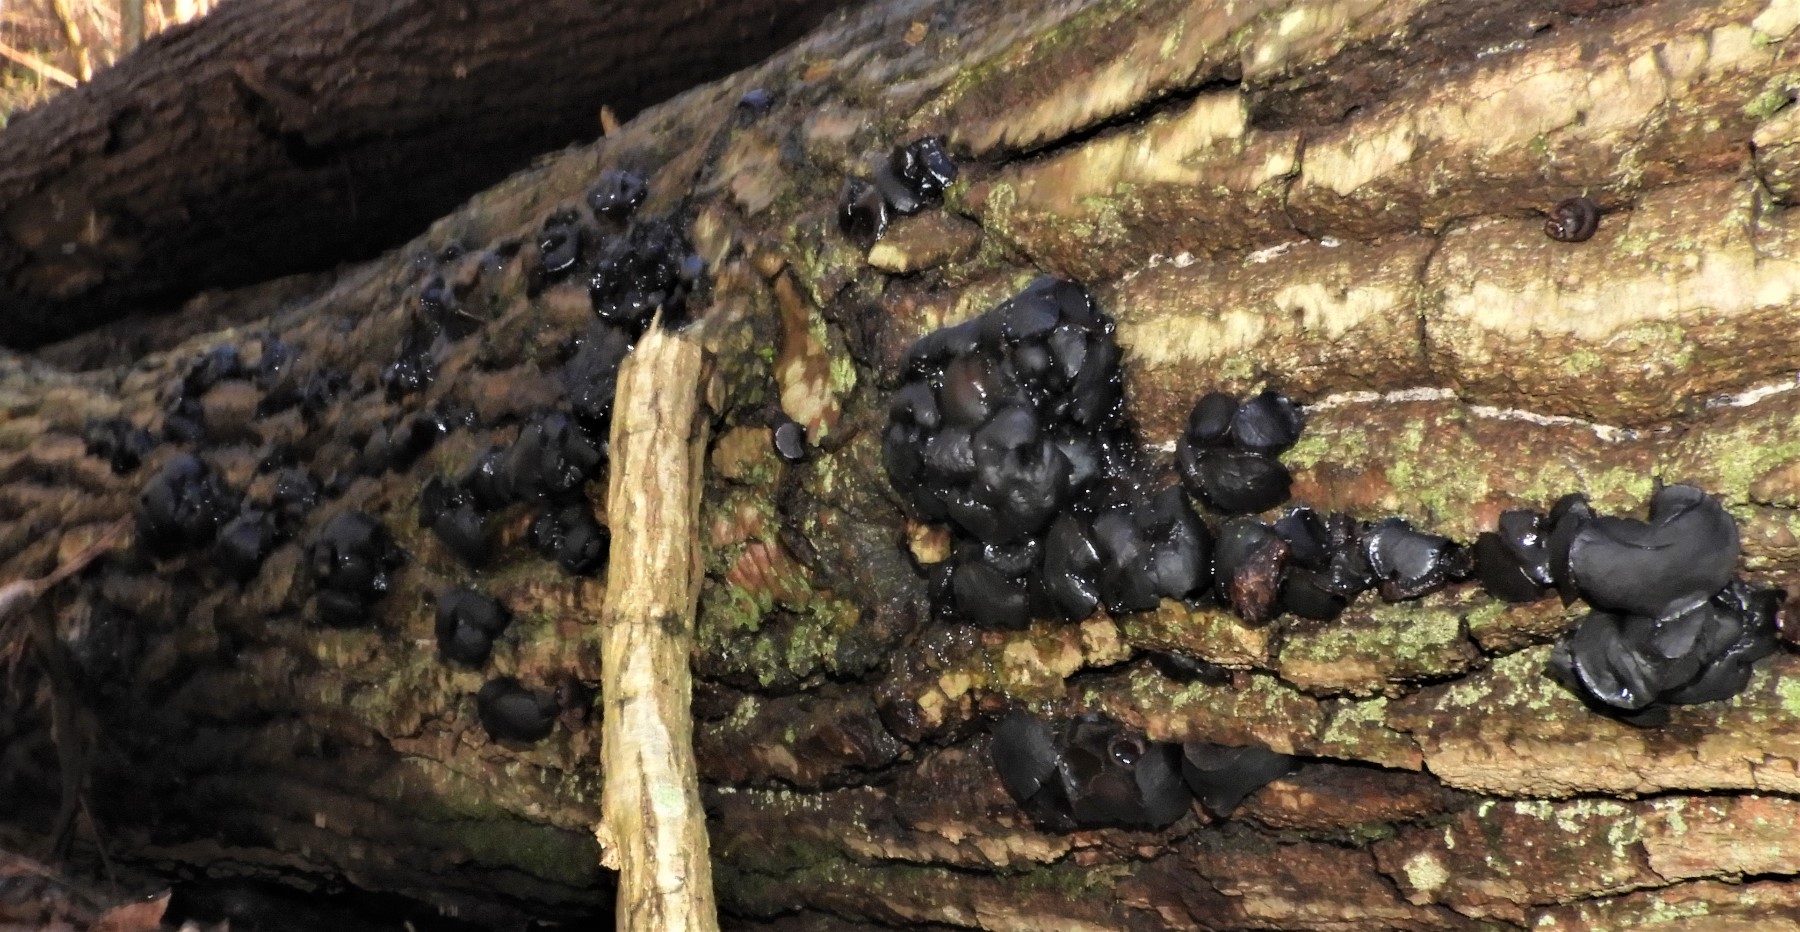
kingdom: Fungi
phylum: Ascomycota
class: Leotiomycetes
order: Phacidiales
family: Phacidiaceae
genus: Bulgaria
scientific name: Bulgaria inquinans
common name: afsmittende topsvamp
